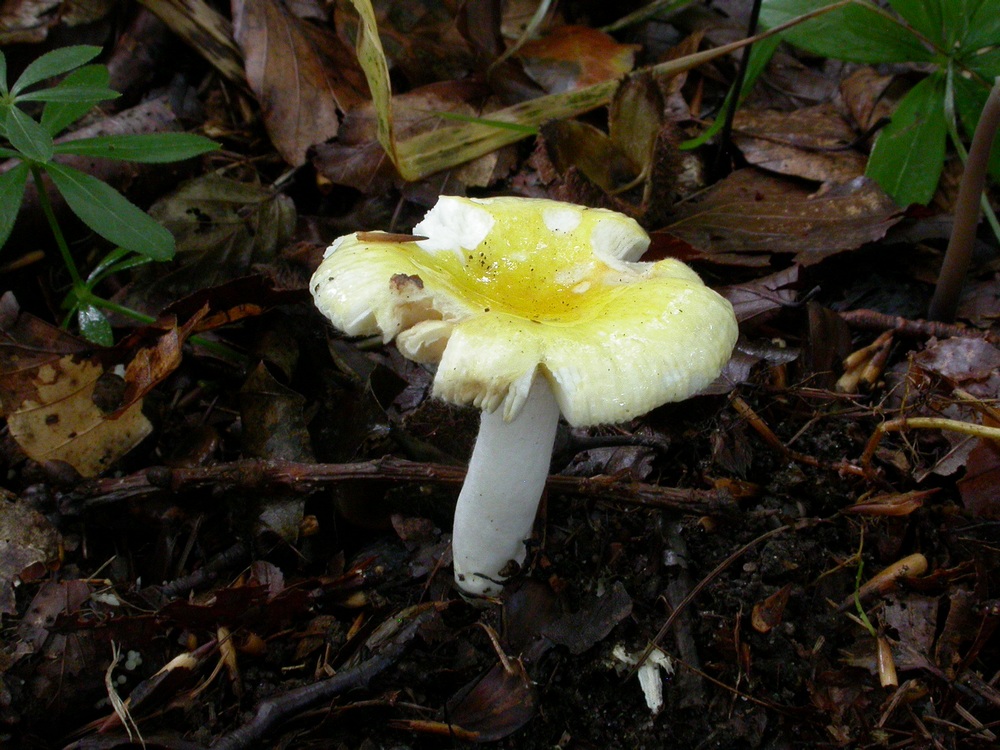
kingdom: Fungi
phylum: Basidiomycota
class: Agaricomycetes
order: Russulales
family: Russulaceae
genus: Russula
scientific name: Russula solaris
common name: sol-skørhat
